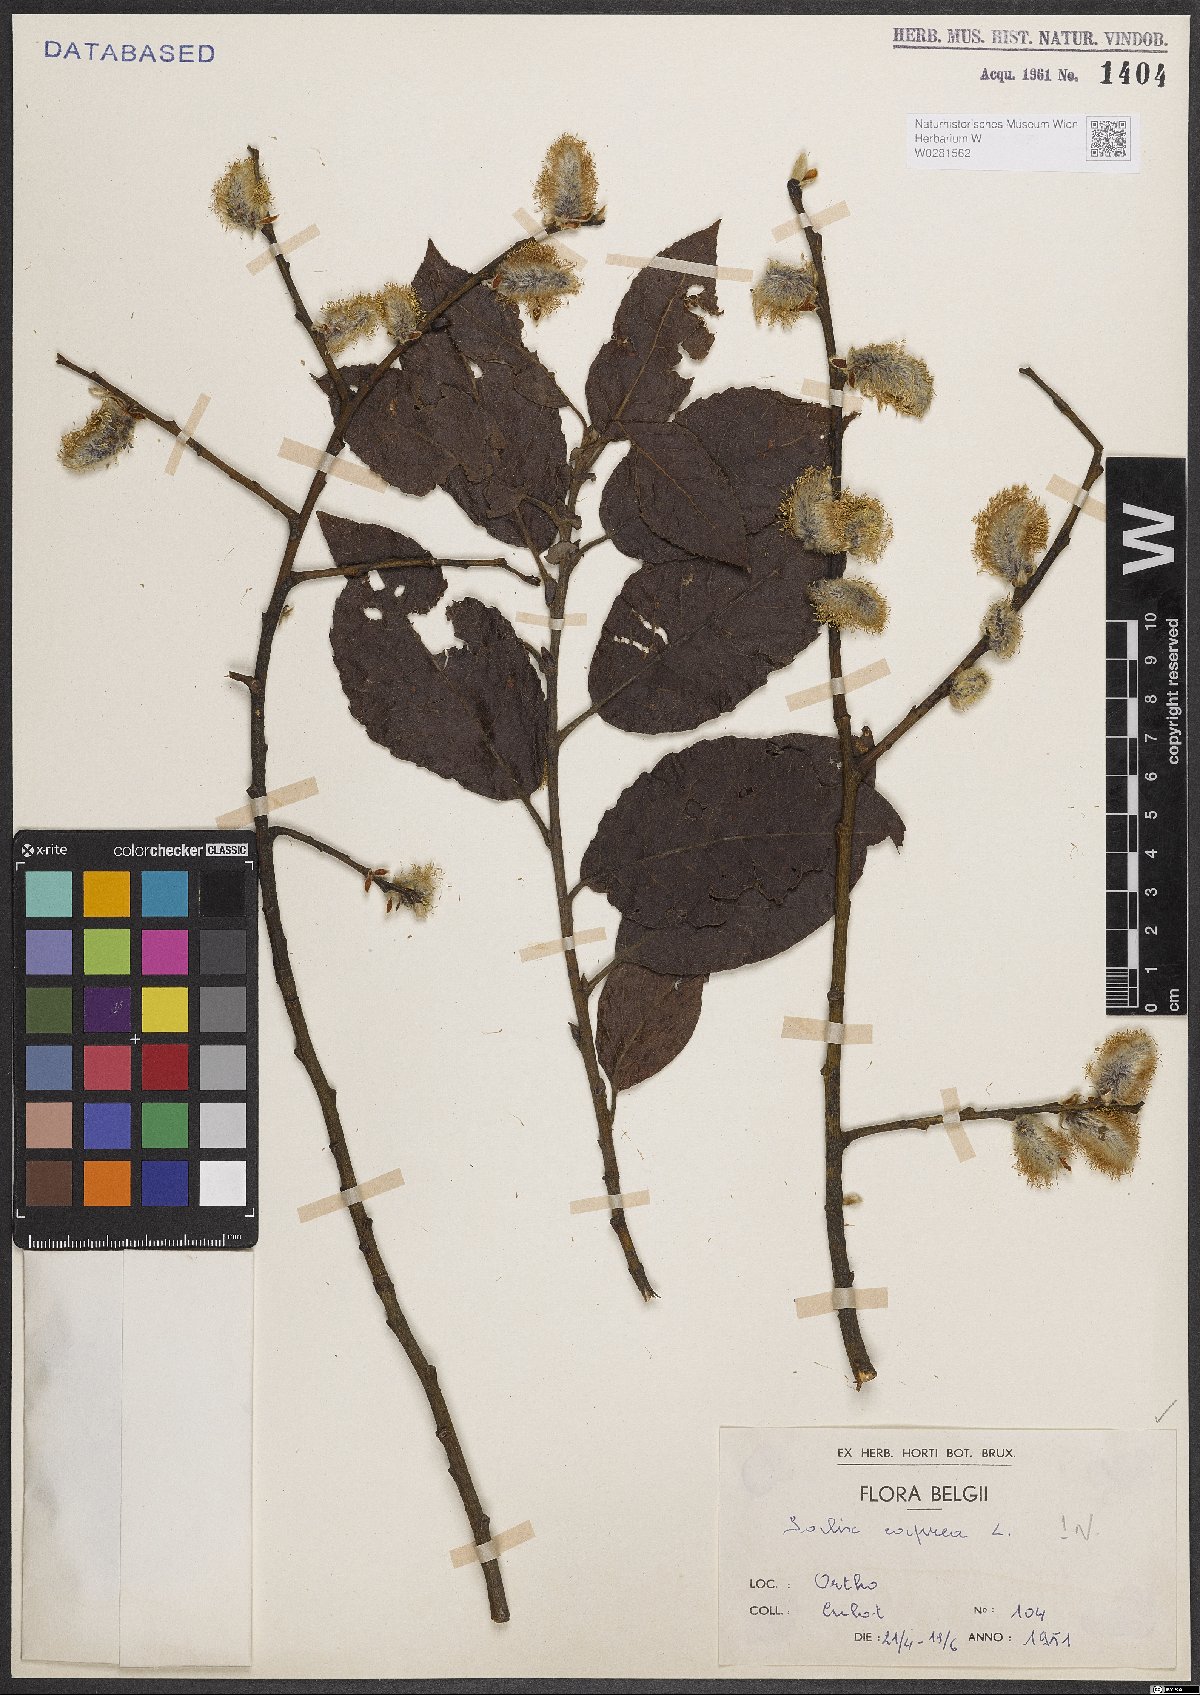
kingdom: Plantae
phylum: Tracheophyta
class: Magnoliopsida
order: Malpighiales
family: Salicaceae
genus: Salix
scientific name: Salix caprea
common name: Goat willow
